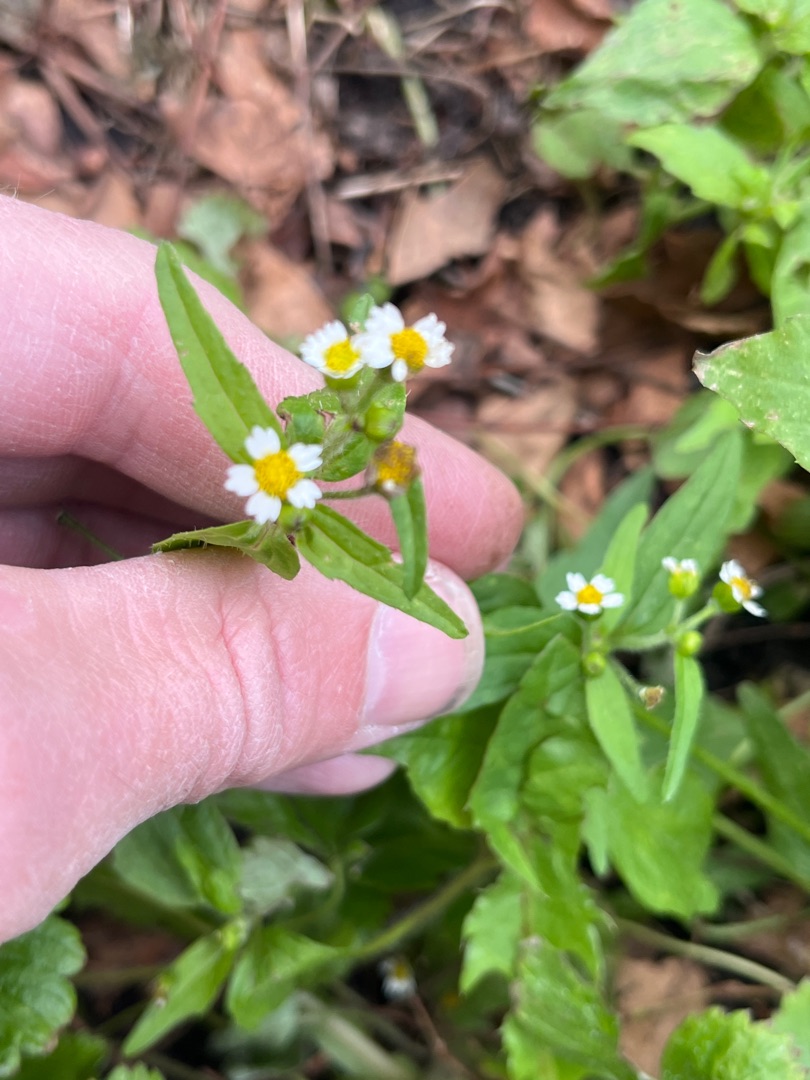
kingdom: Plantae
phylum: Tracheophyta
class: Magnoliopsida
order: Asterales
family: Asteraceae
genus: Galinsoga
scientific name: Galinsoga quadriradiata
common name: Kirtel-kortstråle
